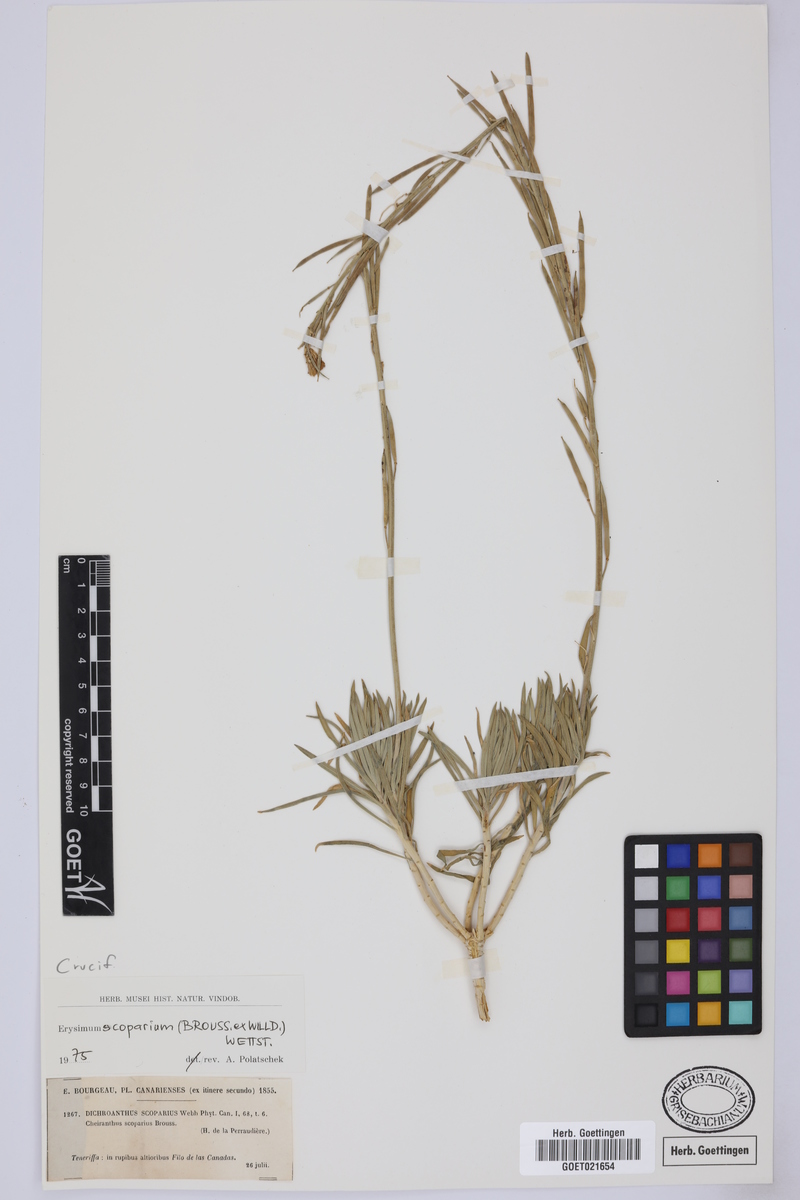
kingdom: Plantae
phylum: Tracheophyta
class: Magnoliopsida
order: Brassicales
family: Brassicaceae
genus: Erysimum
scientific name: Erysimum scoparium
